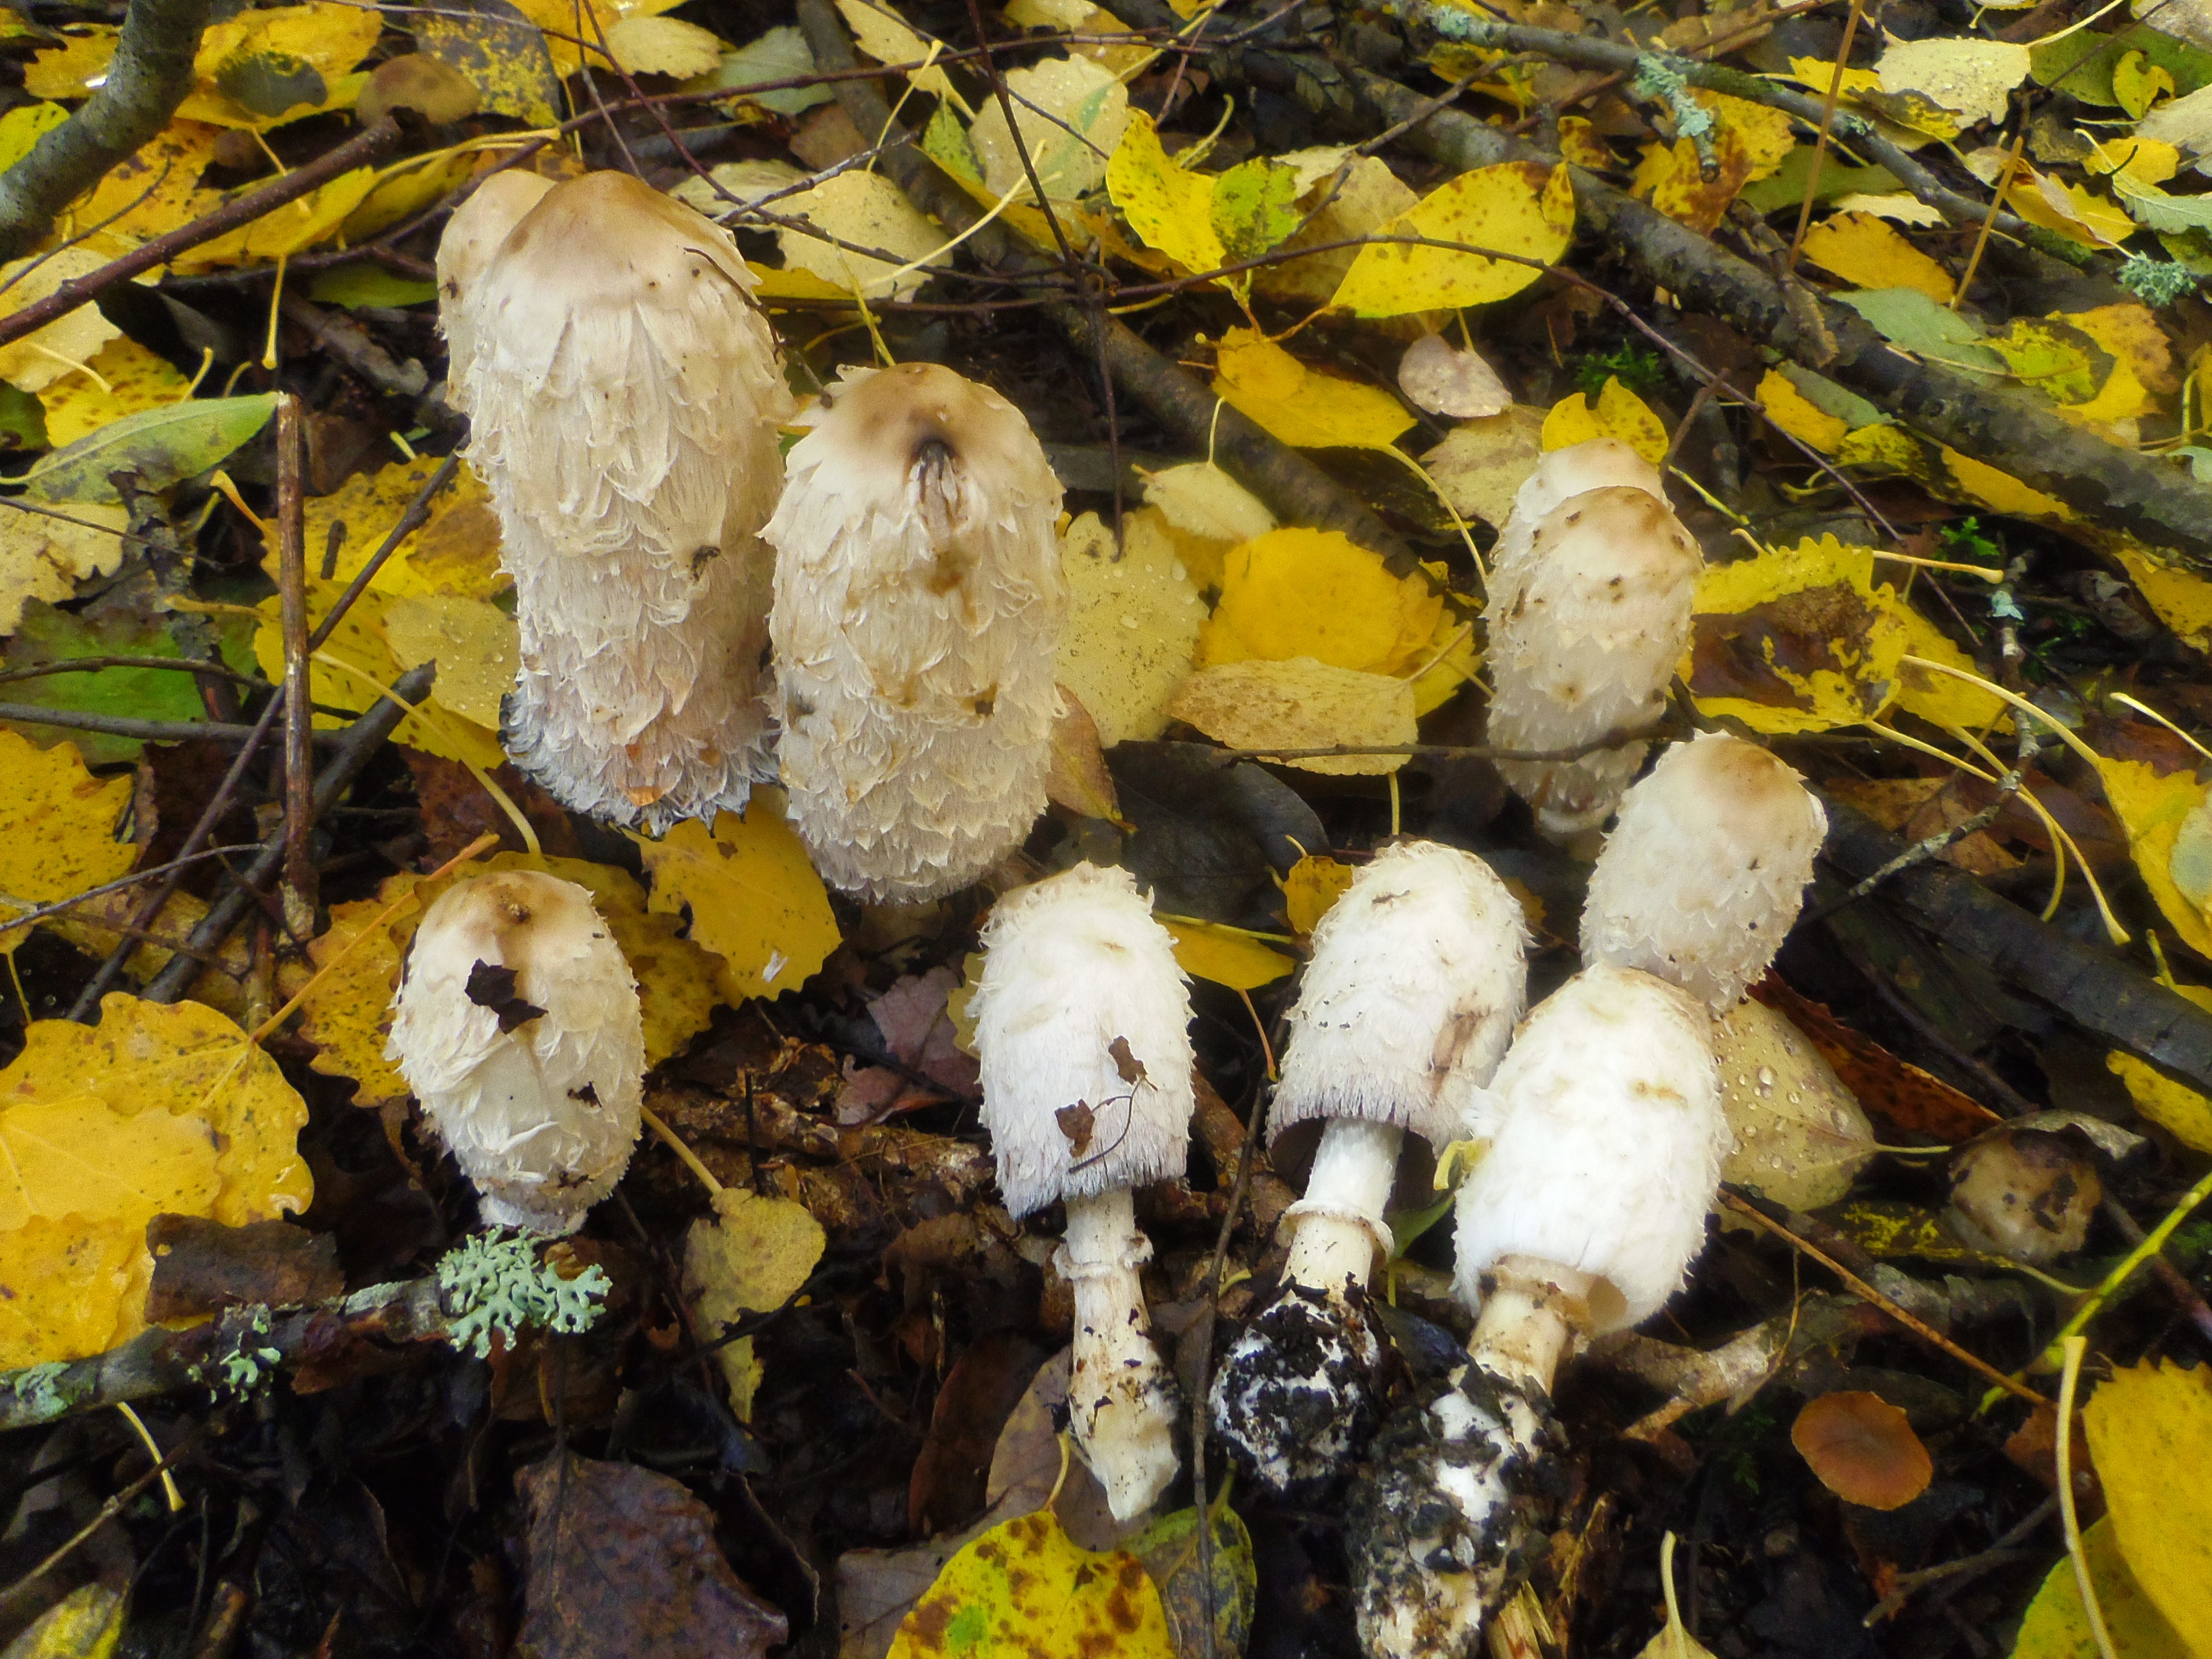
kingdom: Fungi
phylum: Basidiomycota
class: Agaricomycetes
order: Agaricales
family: Agaricaceae
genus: Coprinus
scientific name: Coprinus comatus
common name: Lawyer's wig
